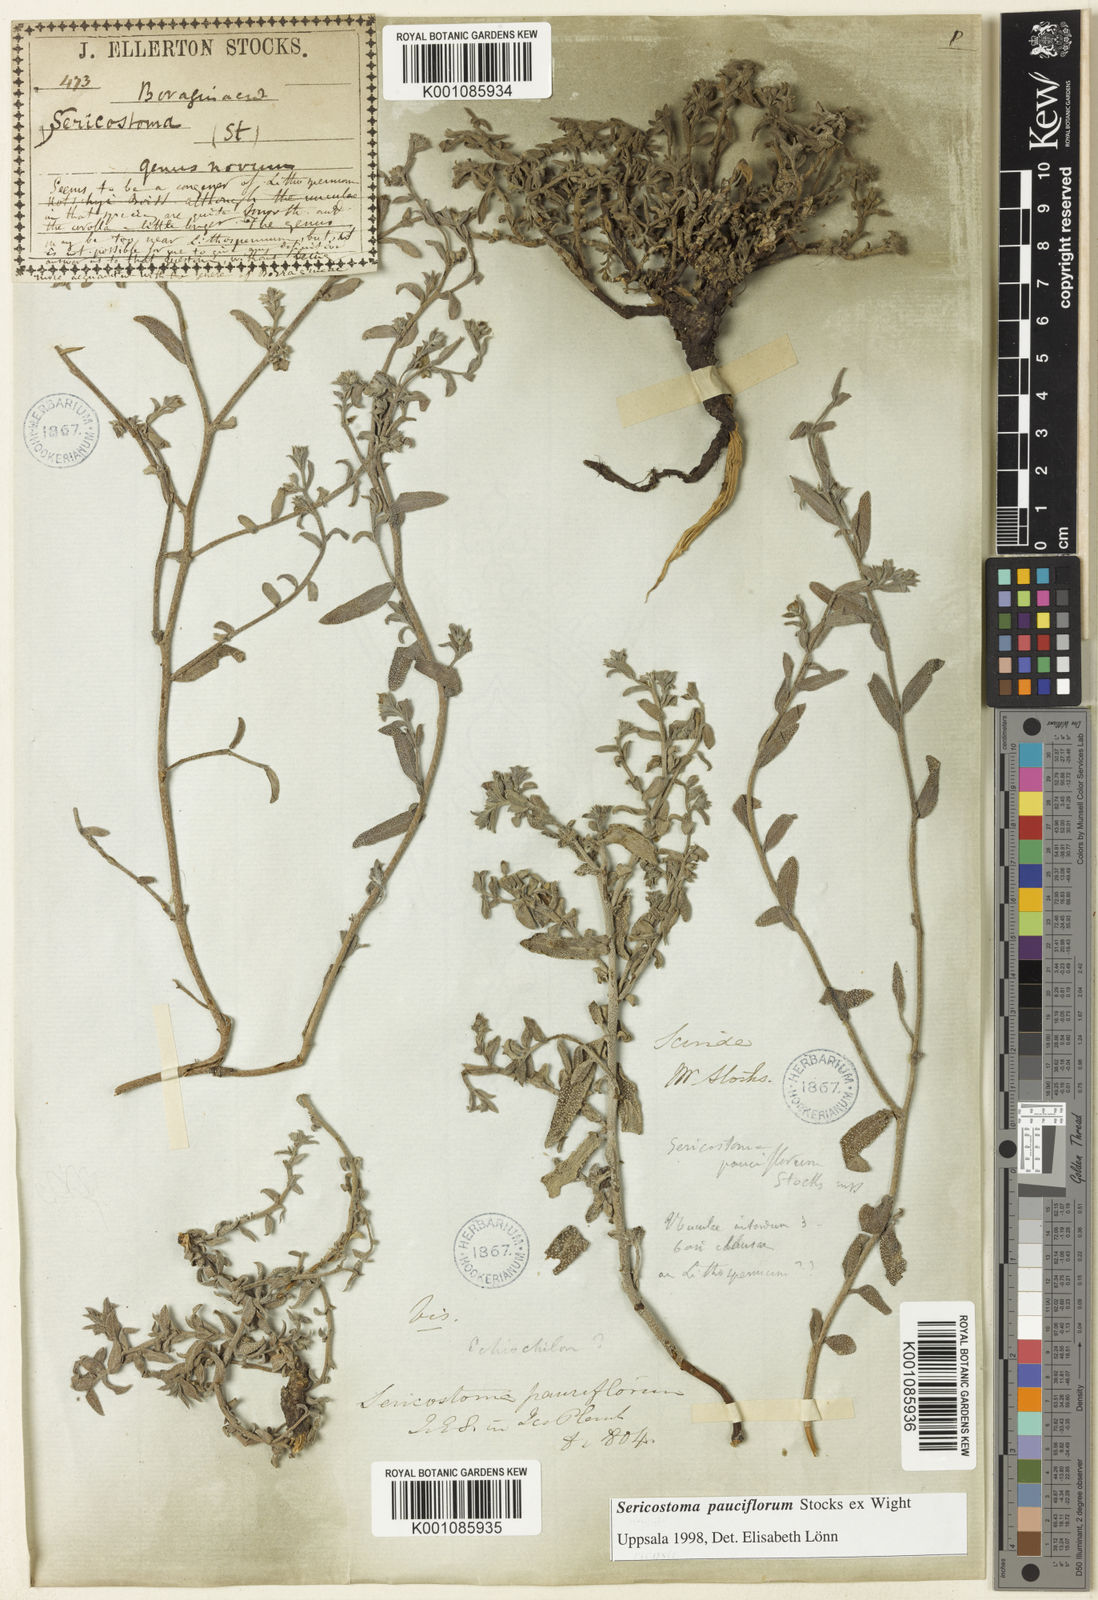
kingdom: Plantae
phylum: Tracheophyta
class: Magnoliopsida
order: Boraginales
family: Boraginaceae
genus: Echiochilon
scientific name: Echiochilon pauciflorum
